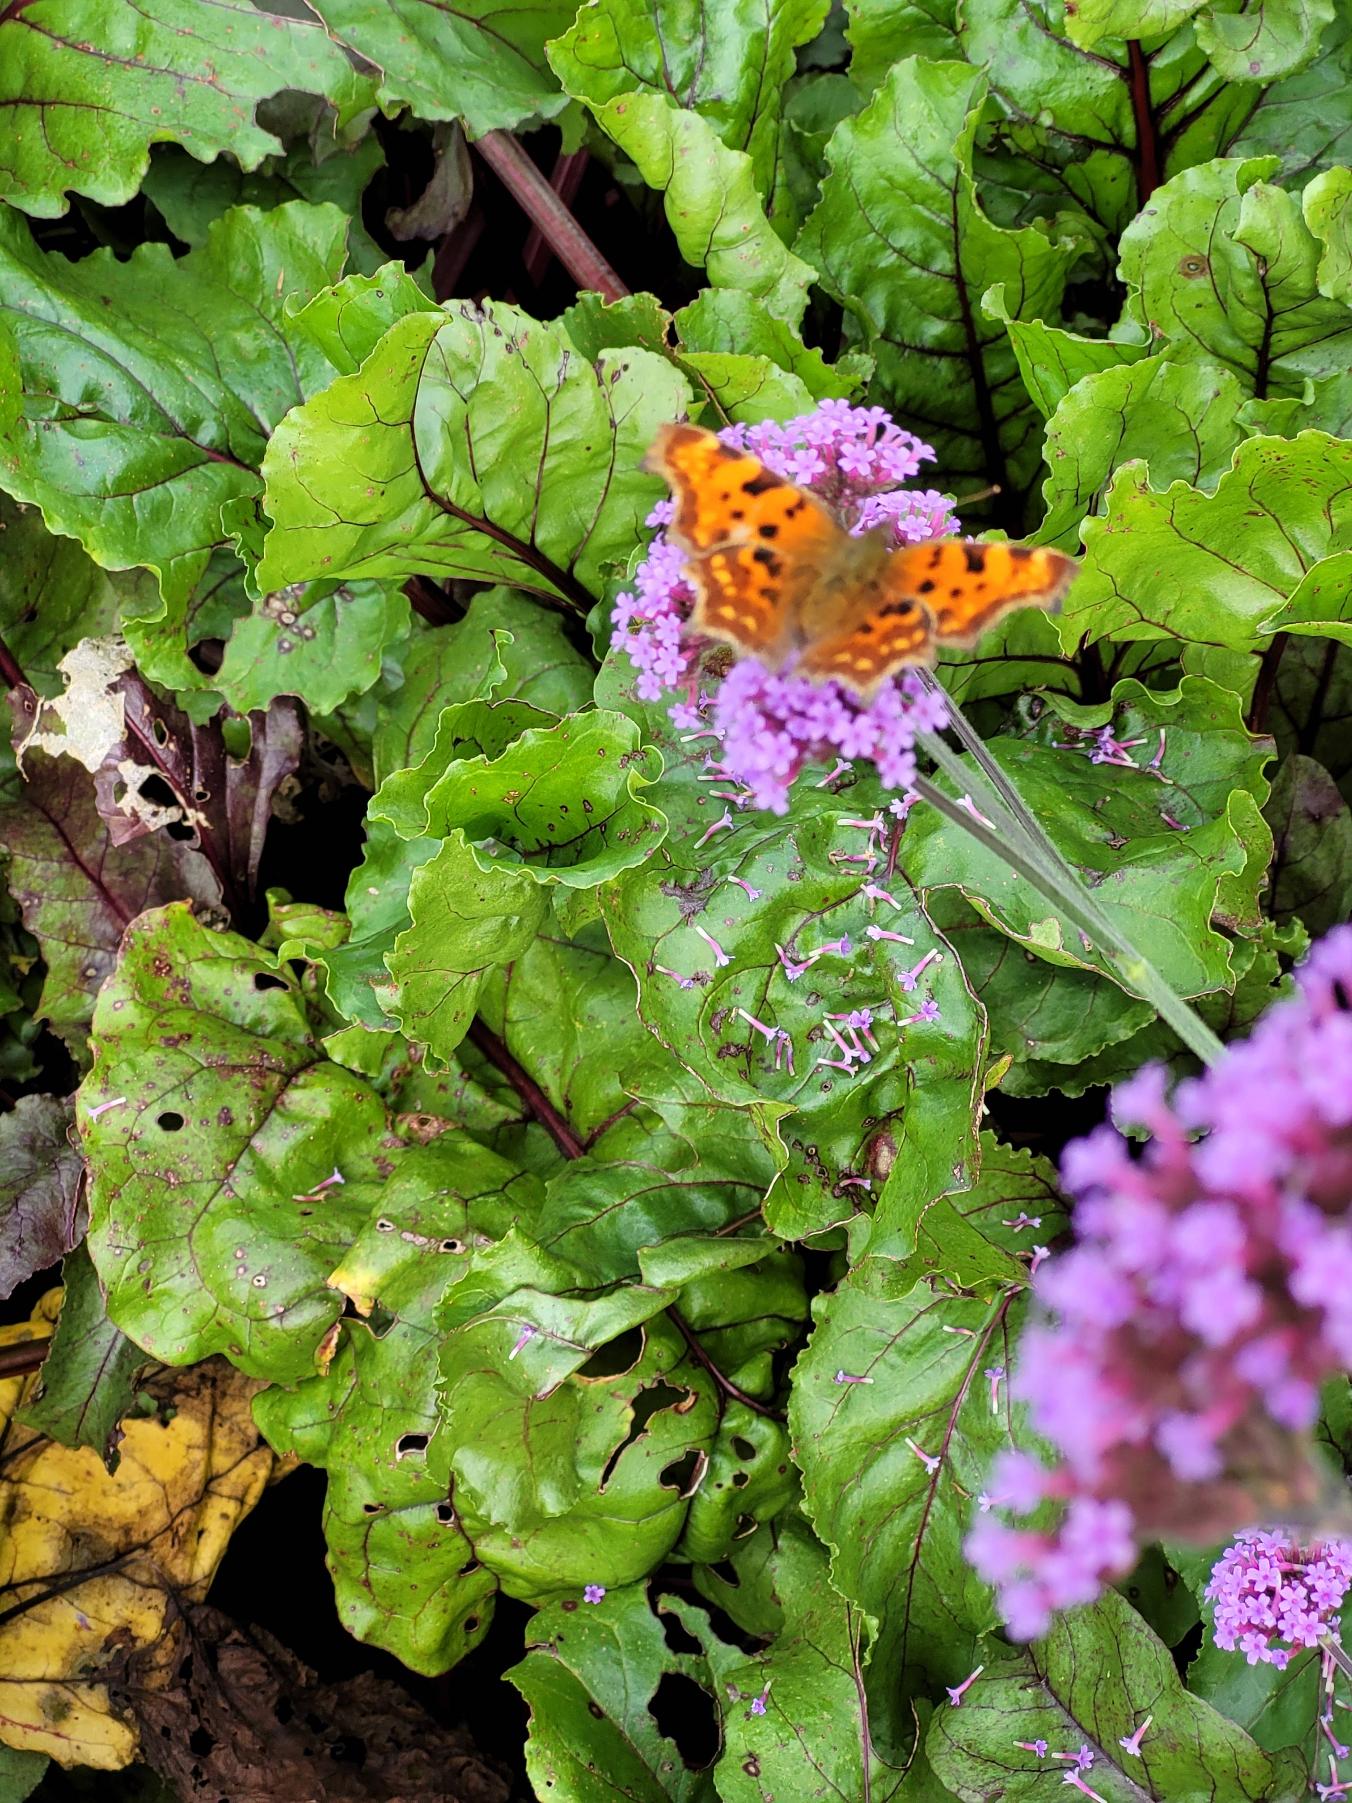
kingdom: Animalia
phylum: Arthropoda
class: Insecta
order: Lepidoptera
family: Nymphalidae
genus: Polygonia
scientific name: Polygonia c-album
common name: Det hvide C
